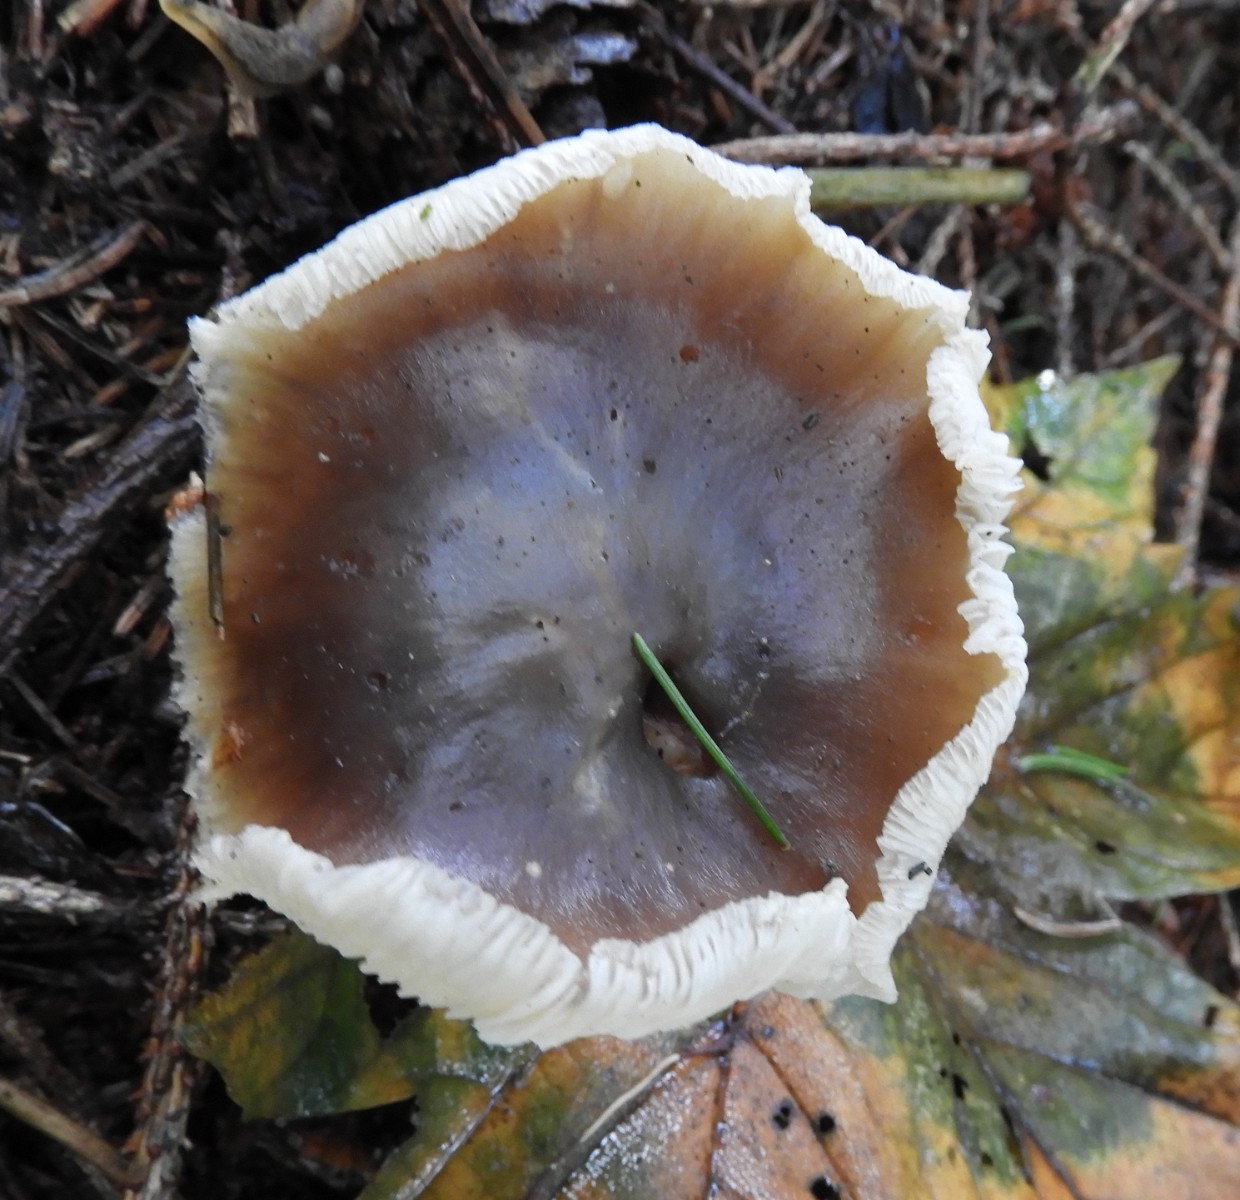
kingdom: Fungi
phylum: Basidiomycota
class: Agaricomycetes
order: Agaricales
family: Omphalotaceae
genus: Rhodocollybia
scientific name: Rhodocollybia asema
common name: horngrå fladhat
